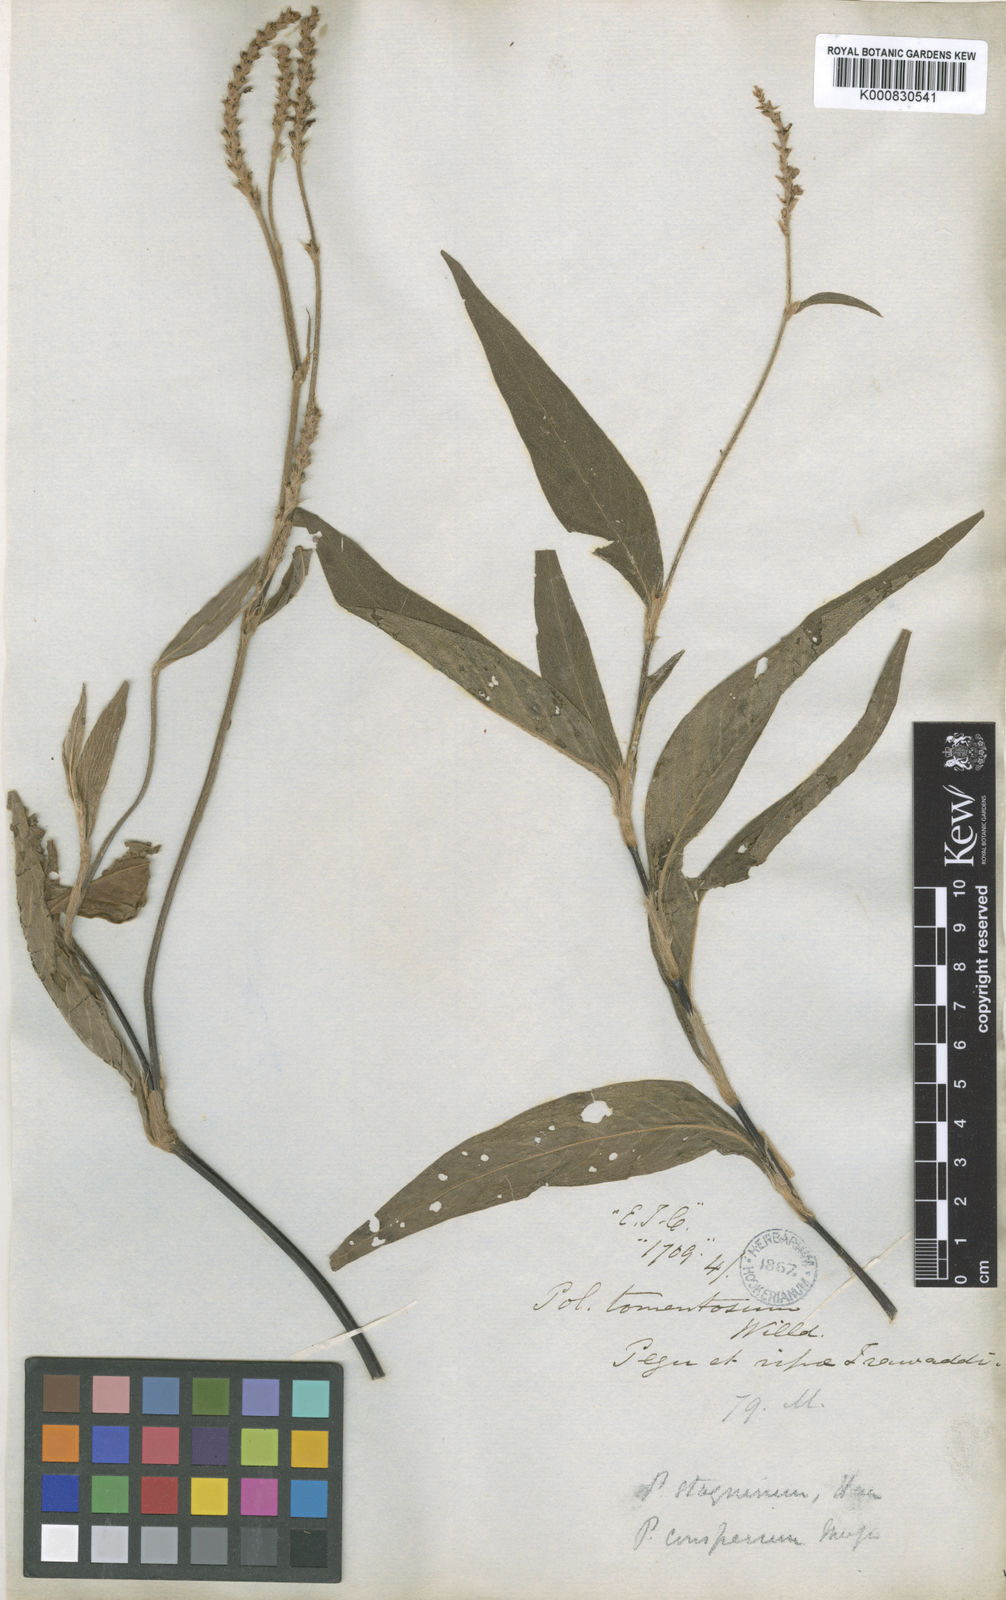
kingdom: Plantae
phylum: Tracheophyta
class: Magnoliopsida
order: Caryophyllales
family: Polygonaceae
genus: Polygonum
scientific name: Polygonum
